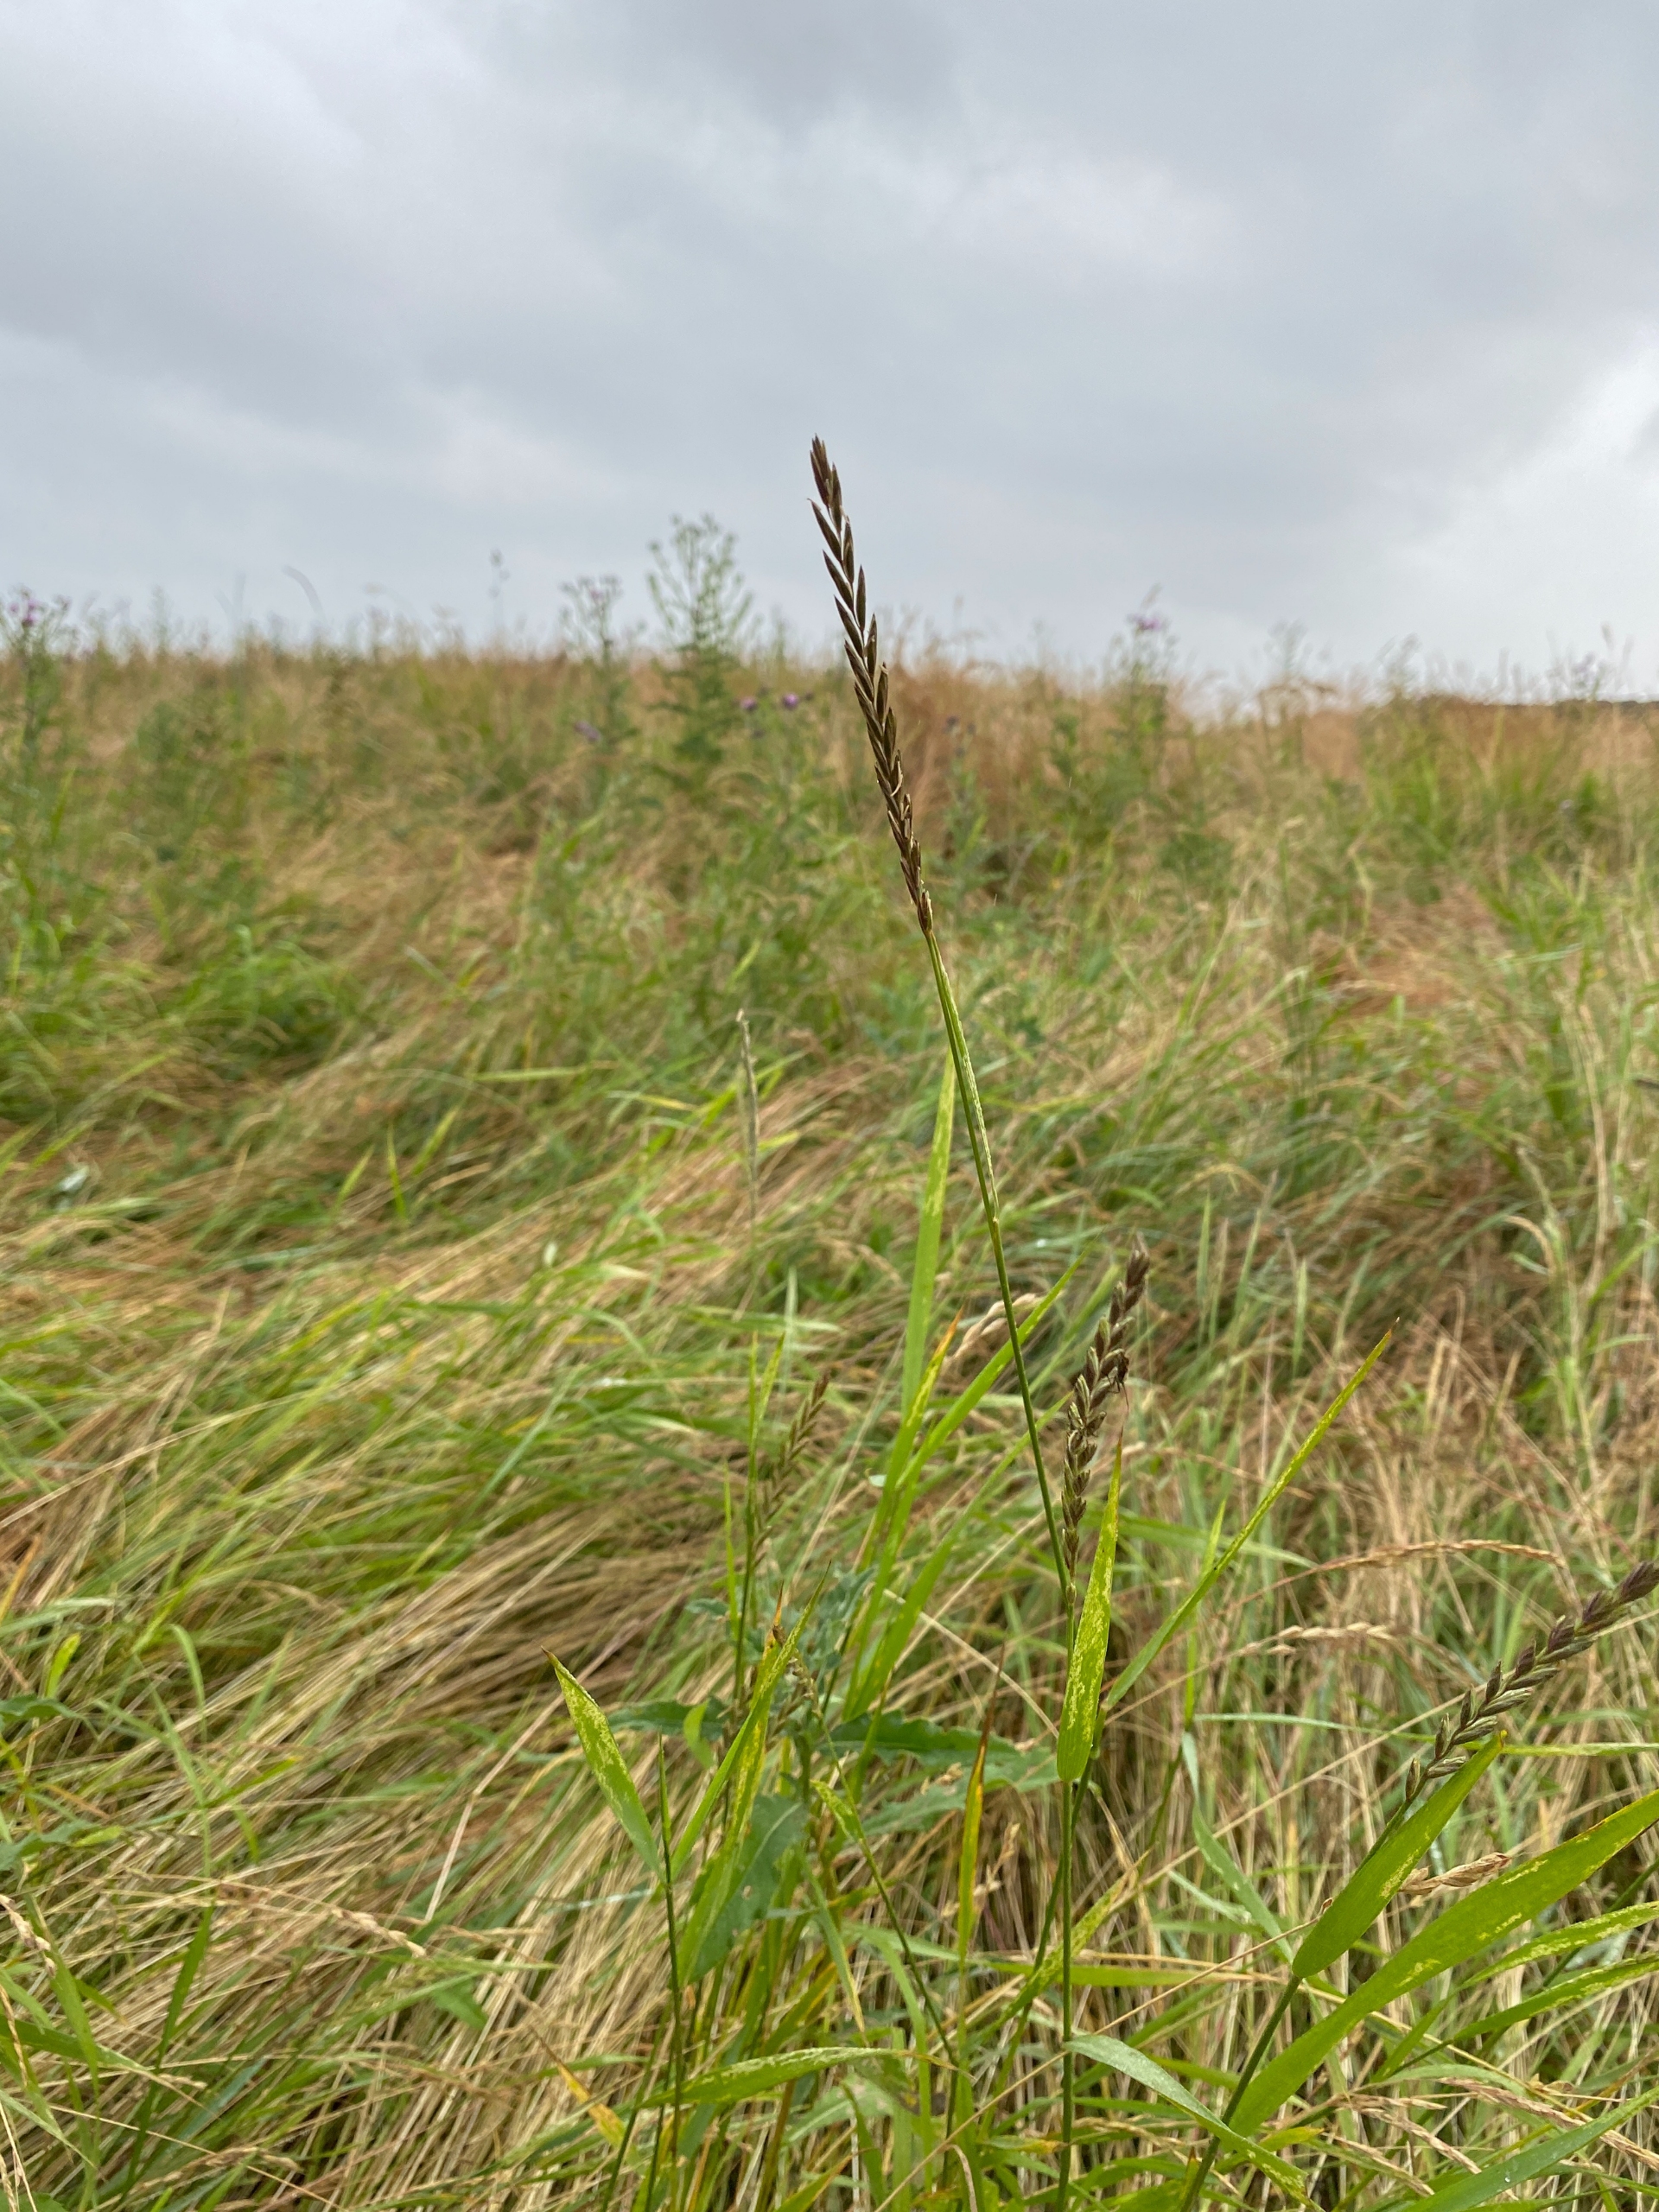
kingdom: Plantae
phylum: Tracheophyta
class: Liliopsida
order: Poales
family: Poaceae
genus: Elymus
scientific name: Elymus repens
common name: Almindelig kvik
